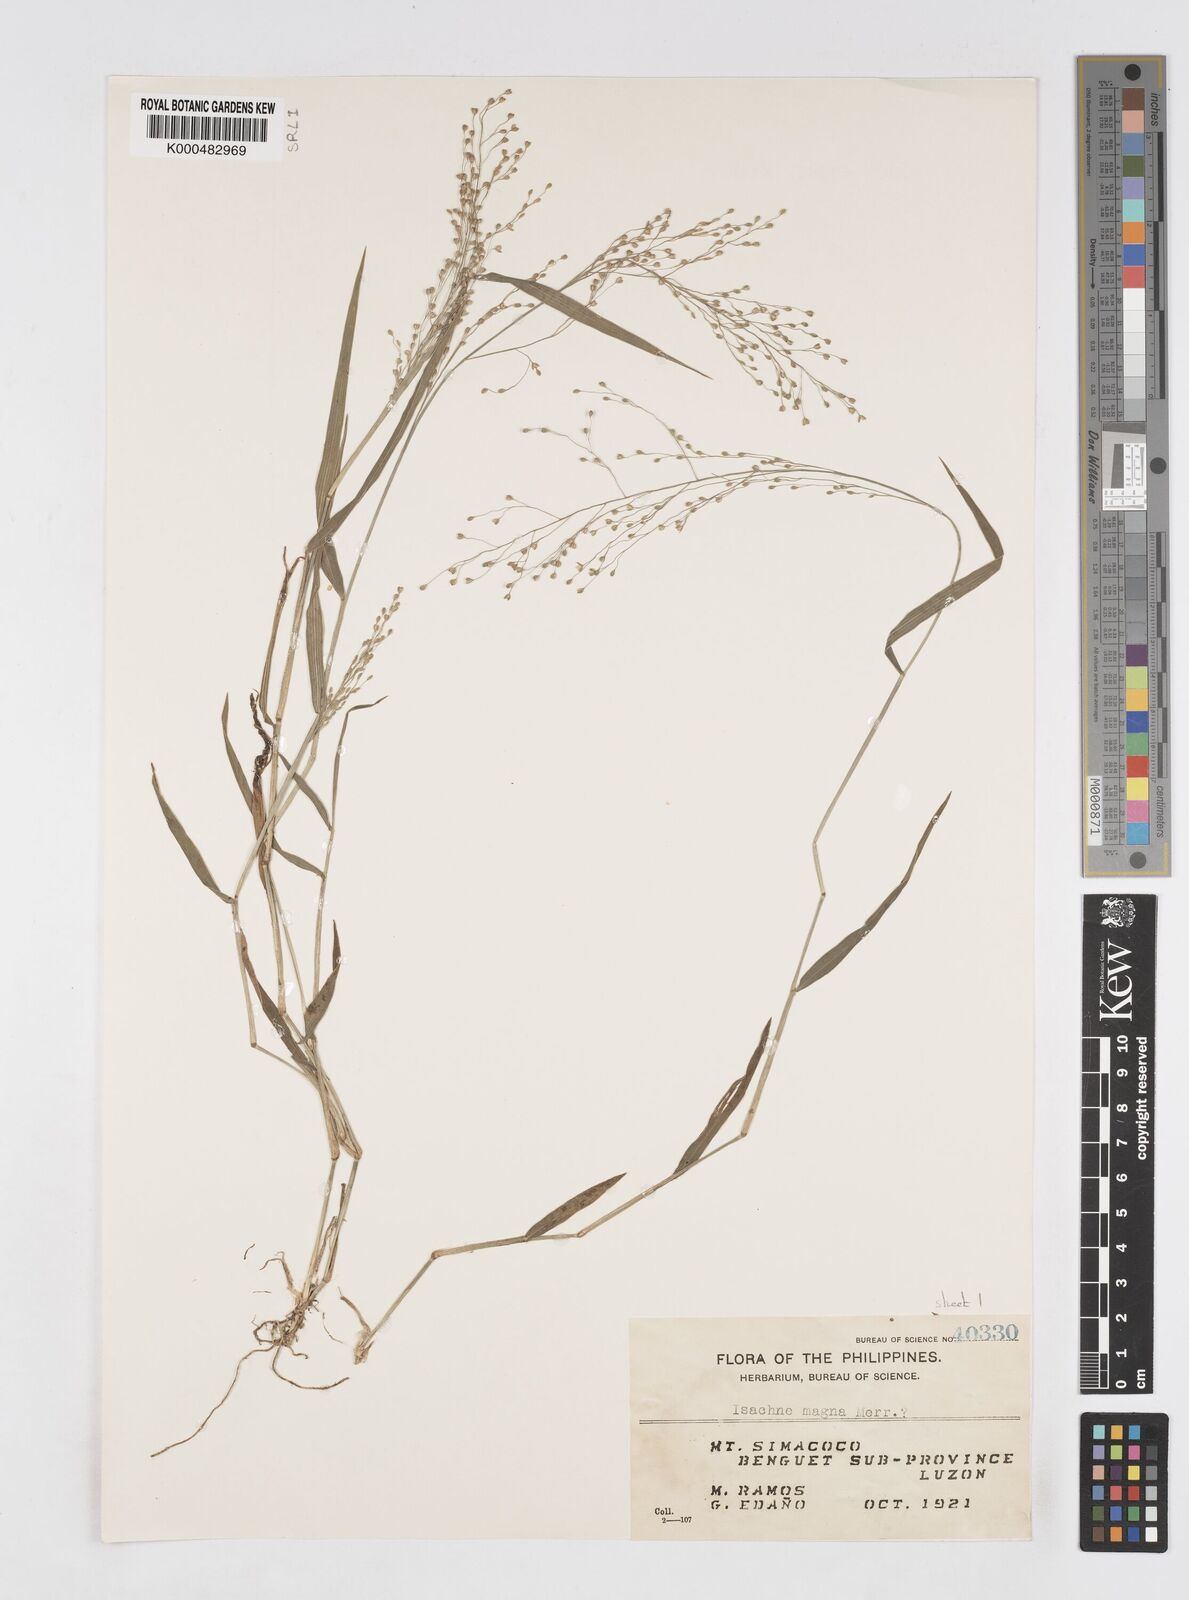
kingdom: Plantae
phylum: Tracheophyta
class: Liliopsida
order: Poales
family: Poaceae
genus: Isachne
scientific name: Isachne clarkei
